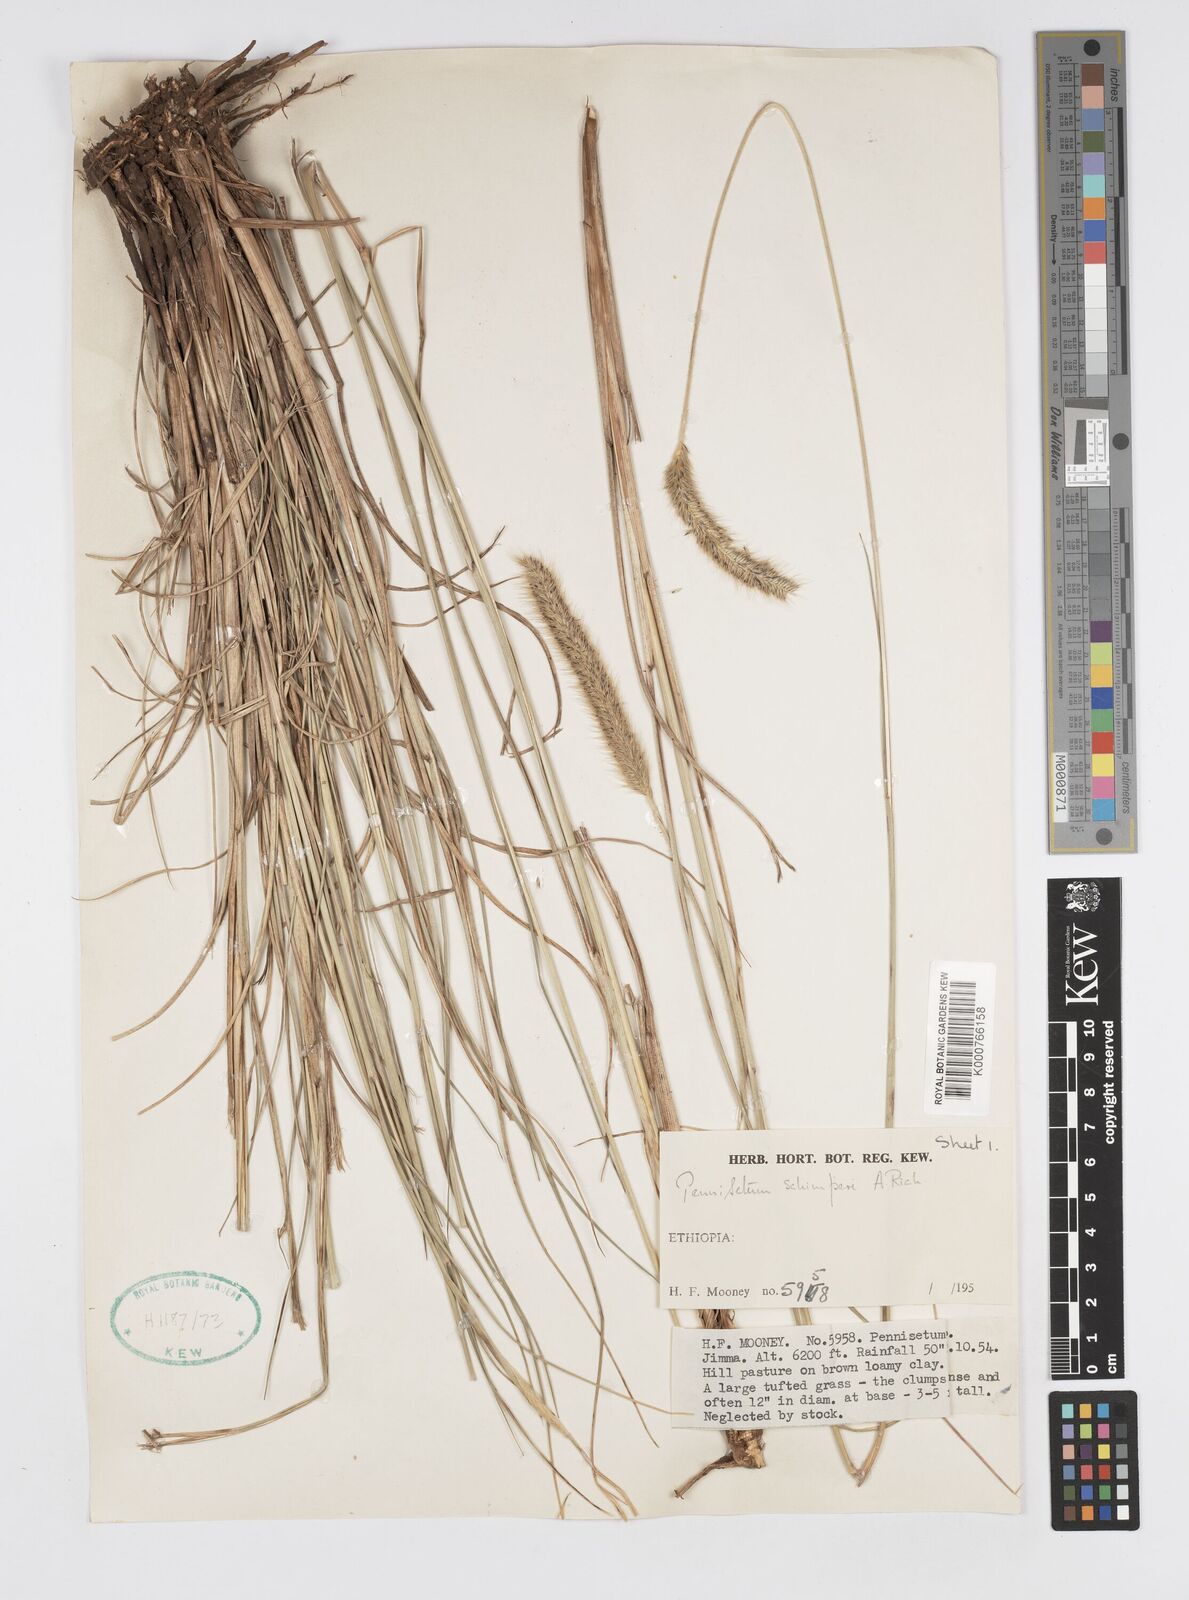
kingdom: Plantae
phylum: Tracheophyta
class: Liliopsida
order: Poales
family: Poaceae
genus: Cenchrus
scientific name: Cenchrus sphacelatus
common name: Bulgras
